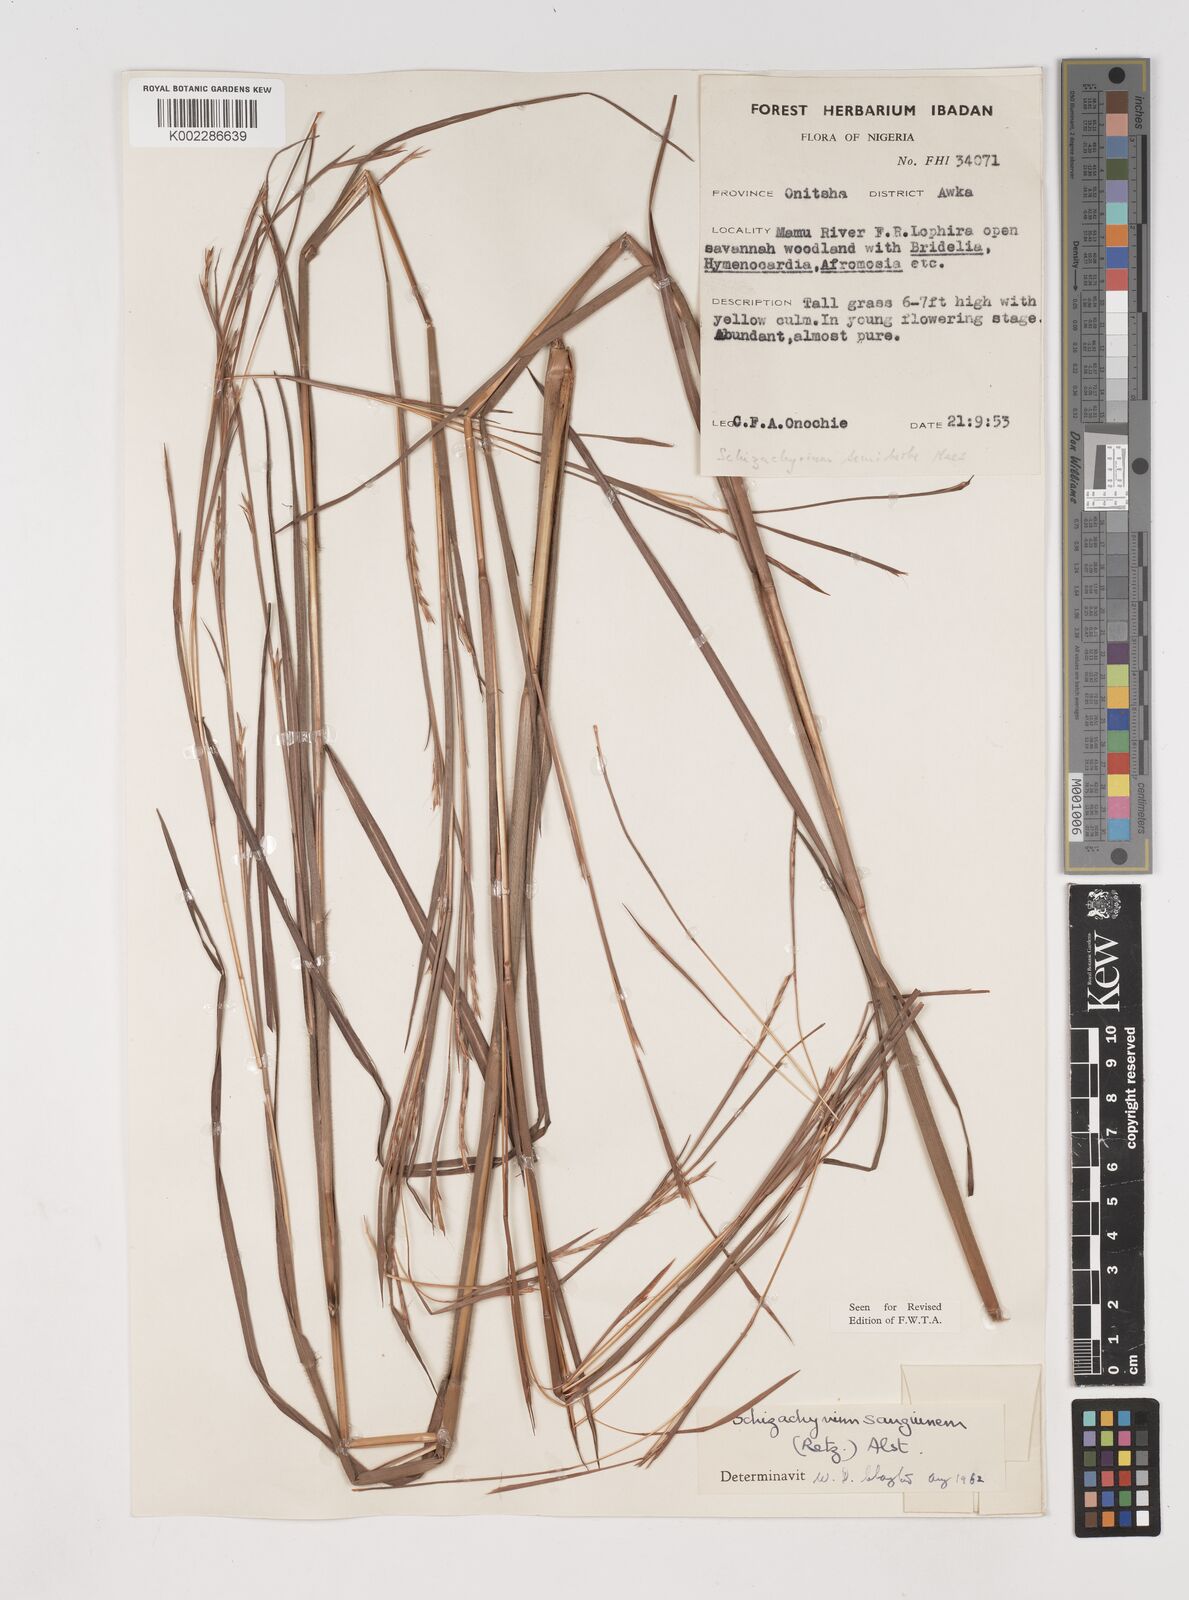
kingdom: Plantae
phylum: Tracheophyta
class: Liliopsida
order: Poales
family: Poaceae
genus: Schizachyrium
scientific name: Schizachyrium sanguineum
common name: Crimson bluestem
